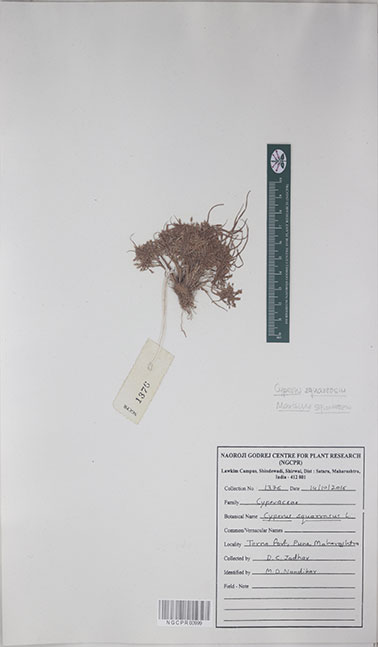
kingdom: Plantae
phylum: Tracheophyta
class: Liliopsida
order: Poales
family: Cyperaceae
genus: Cyperus
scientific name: Cyperus squarrosus
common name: Awned cyperus
